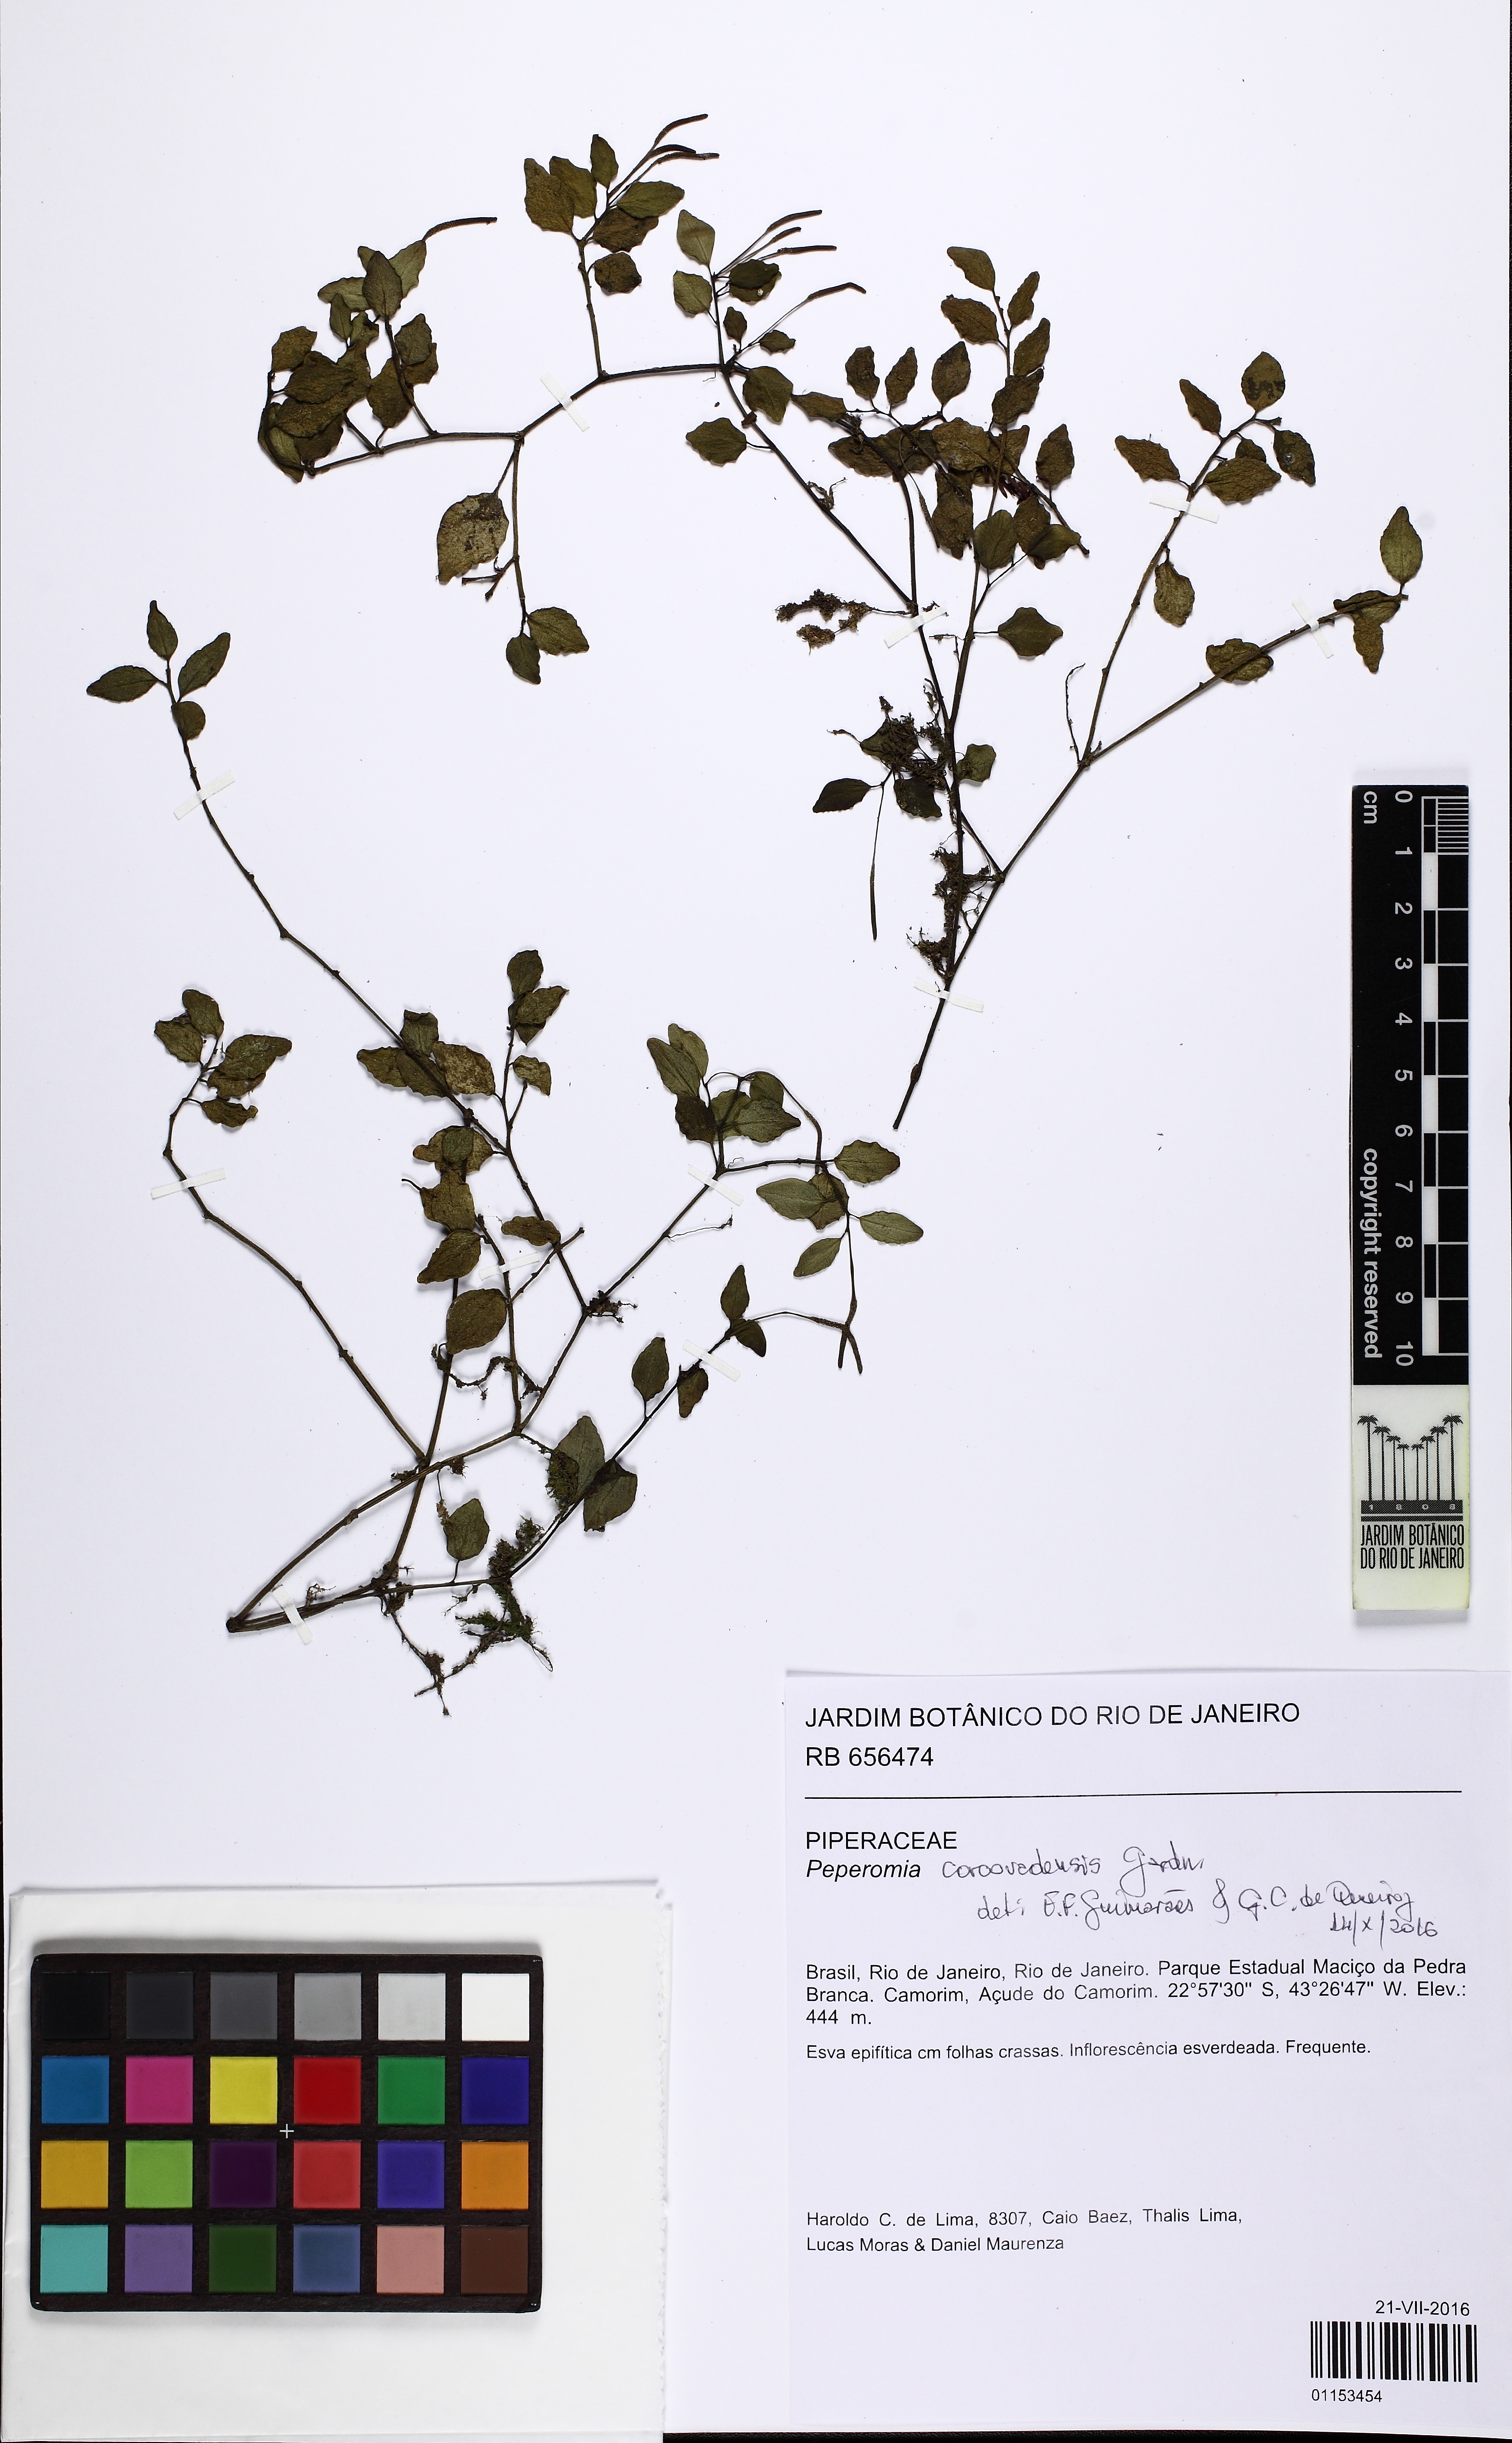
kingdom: Plantae
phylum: Tracheophyta
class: Magnoliopsida
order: Piperales
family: Piperaceae
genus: Peperomia
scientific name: Peperomia corcovadensis
